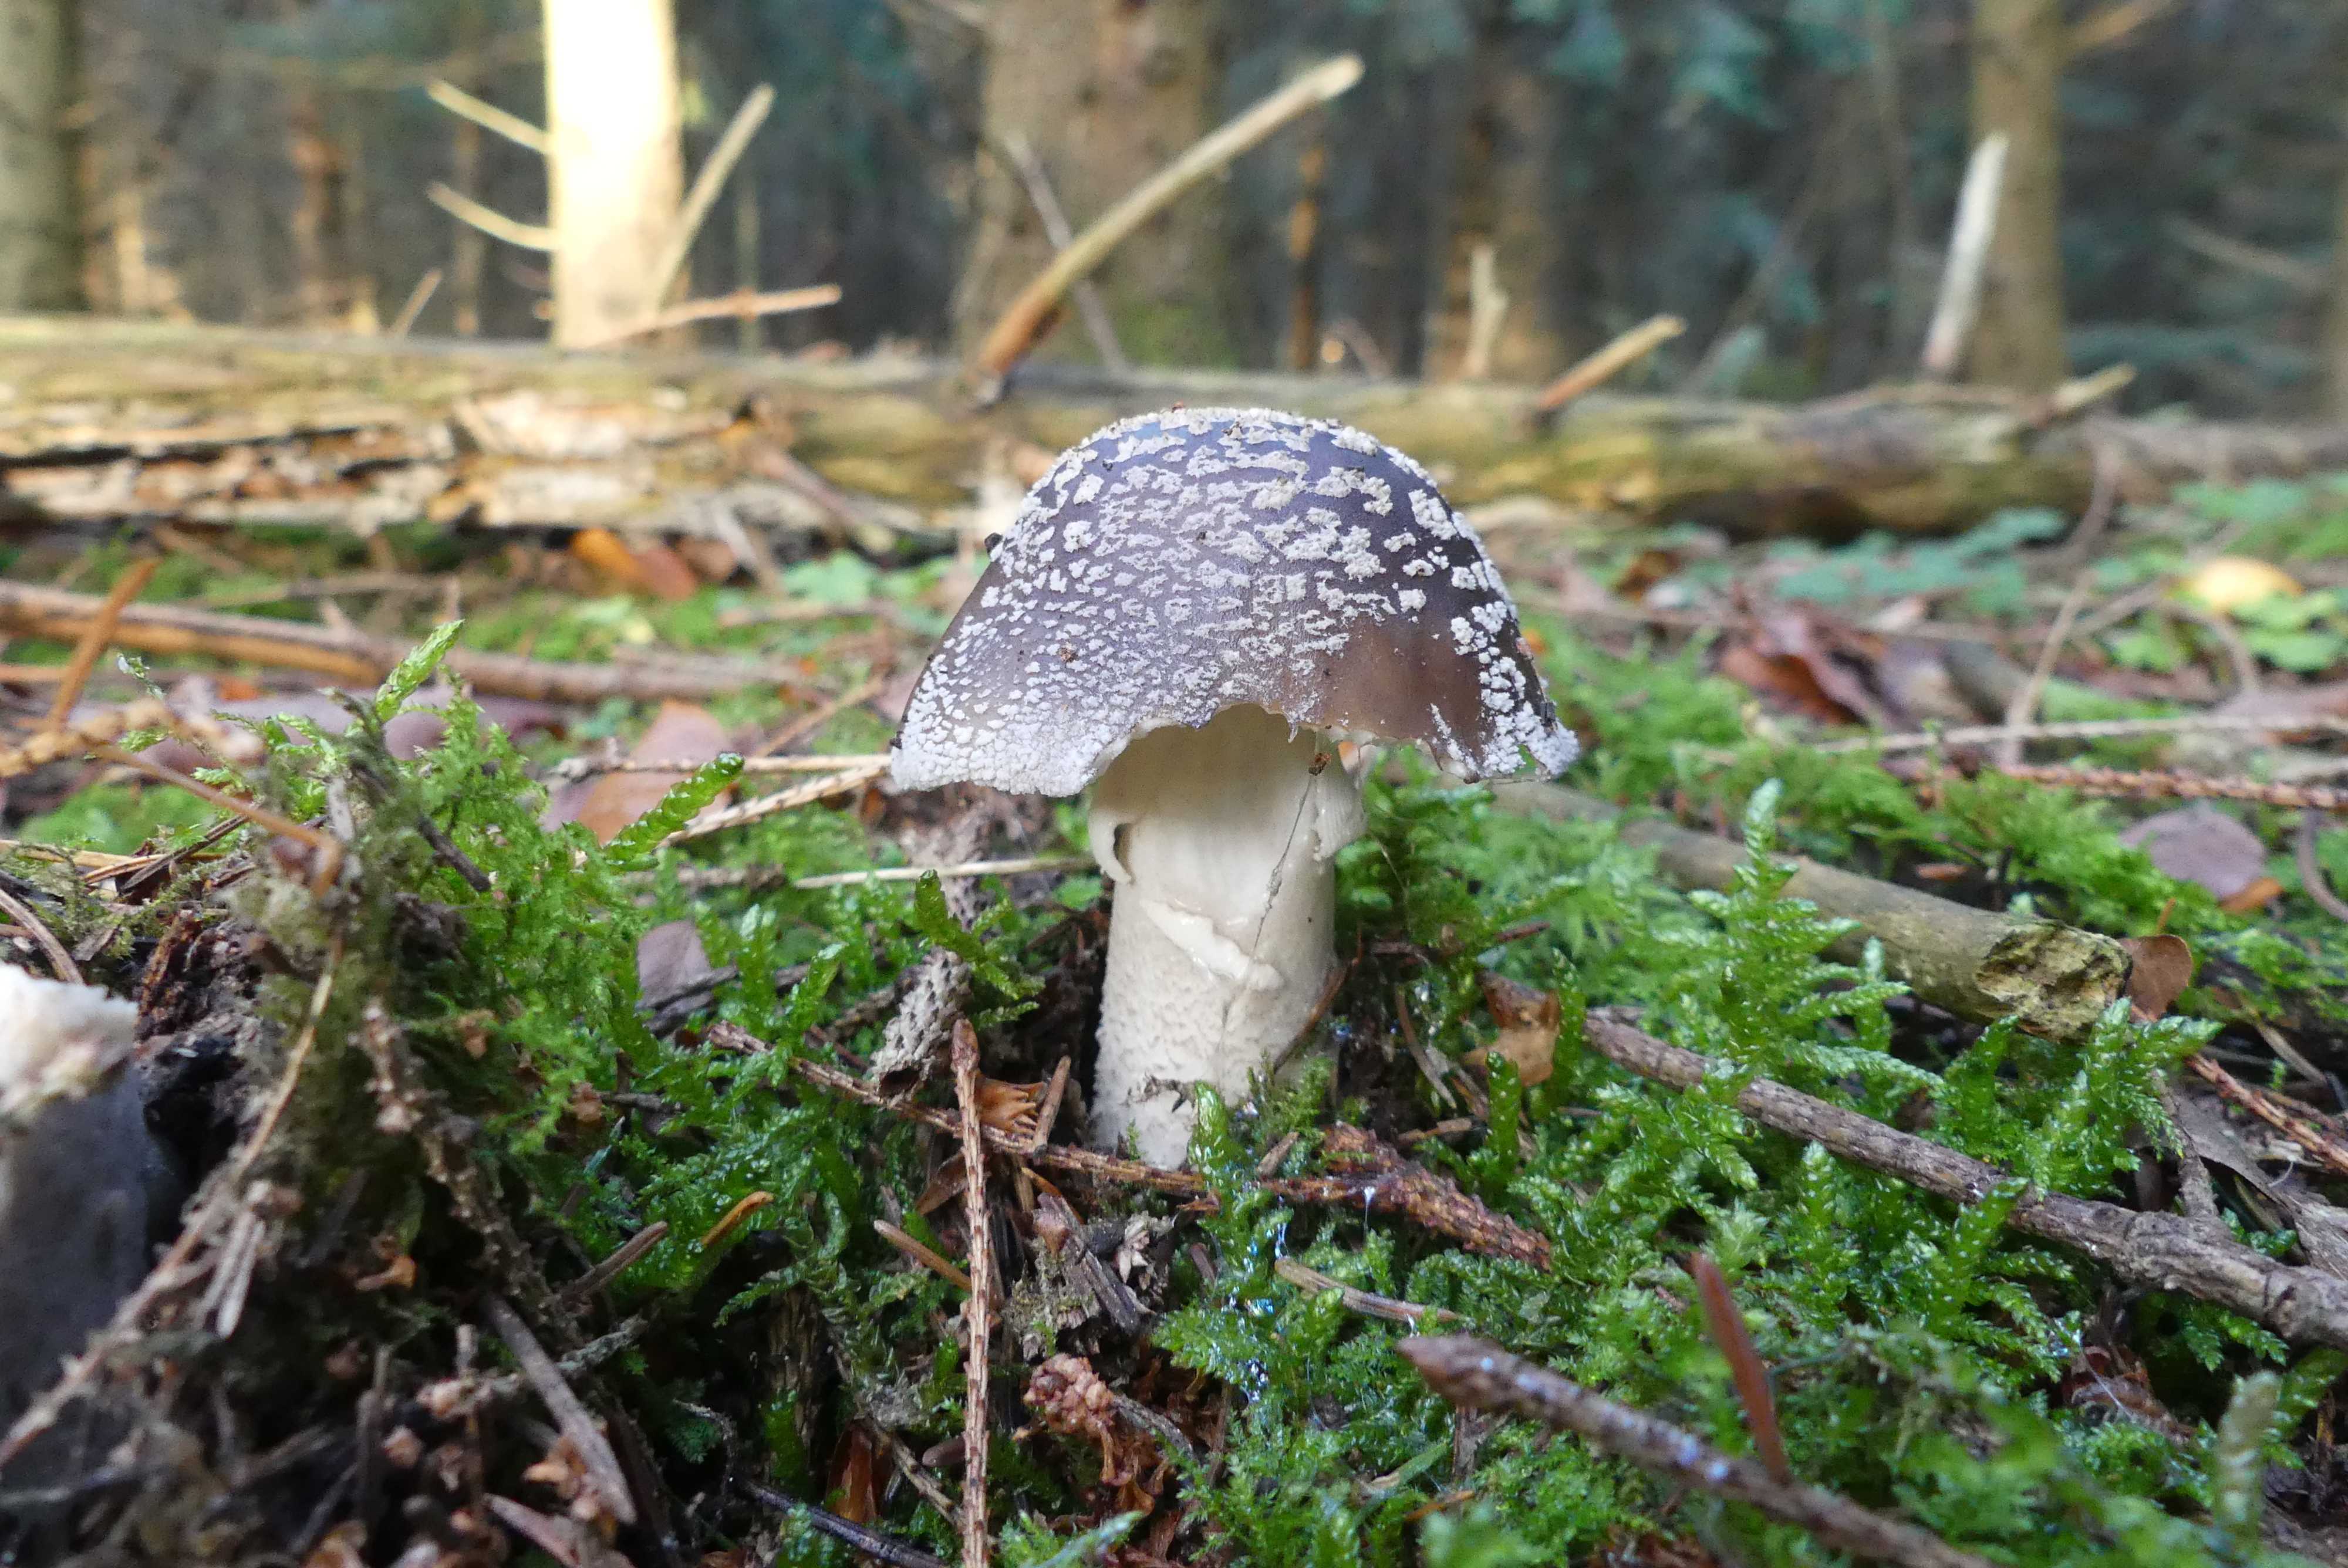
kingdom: Fungi
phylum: Basidiomycota
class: Agaricomycetes
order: Agaricales
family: Amanitaceae
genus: Amanita
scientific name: Amanita
